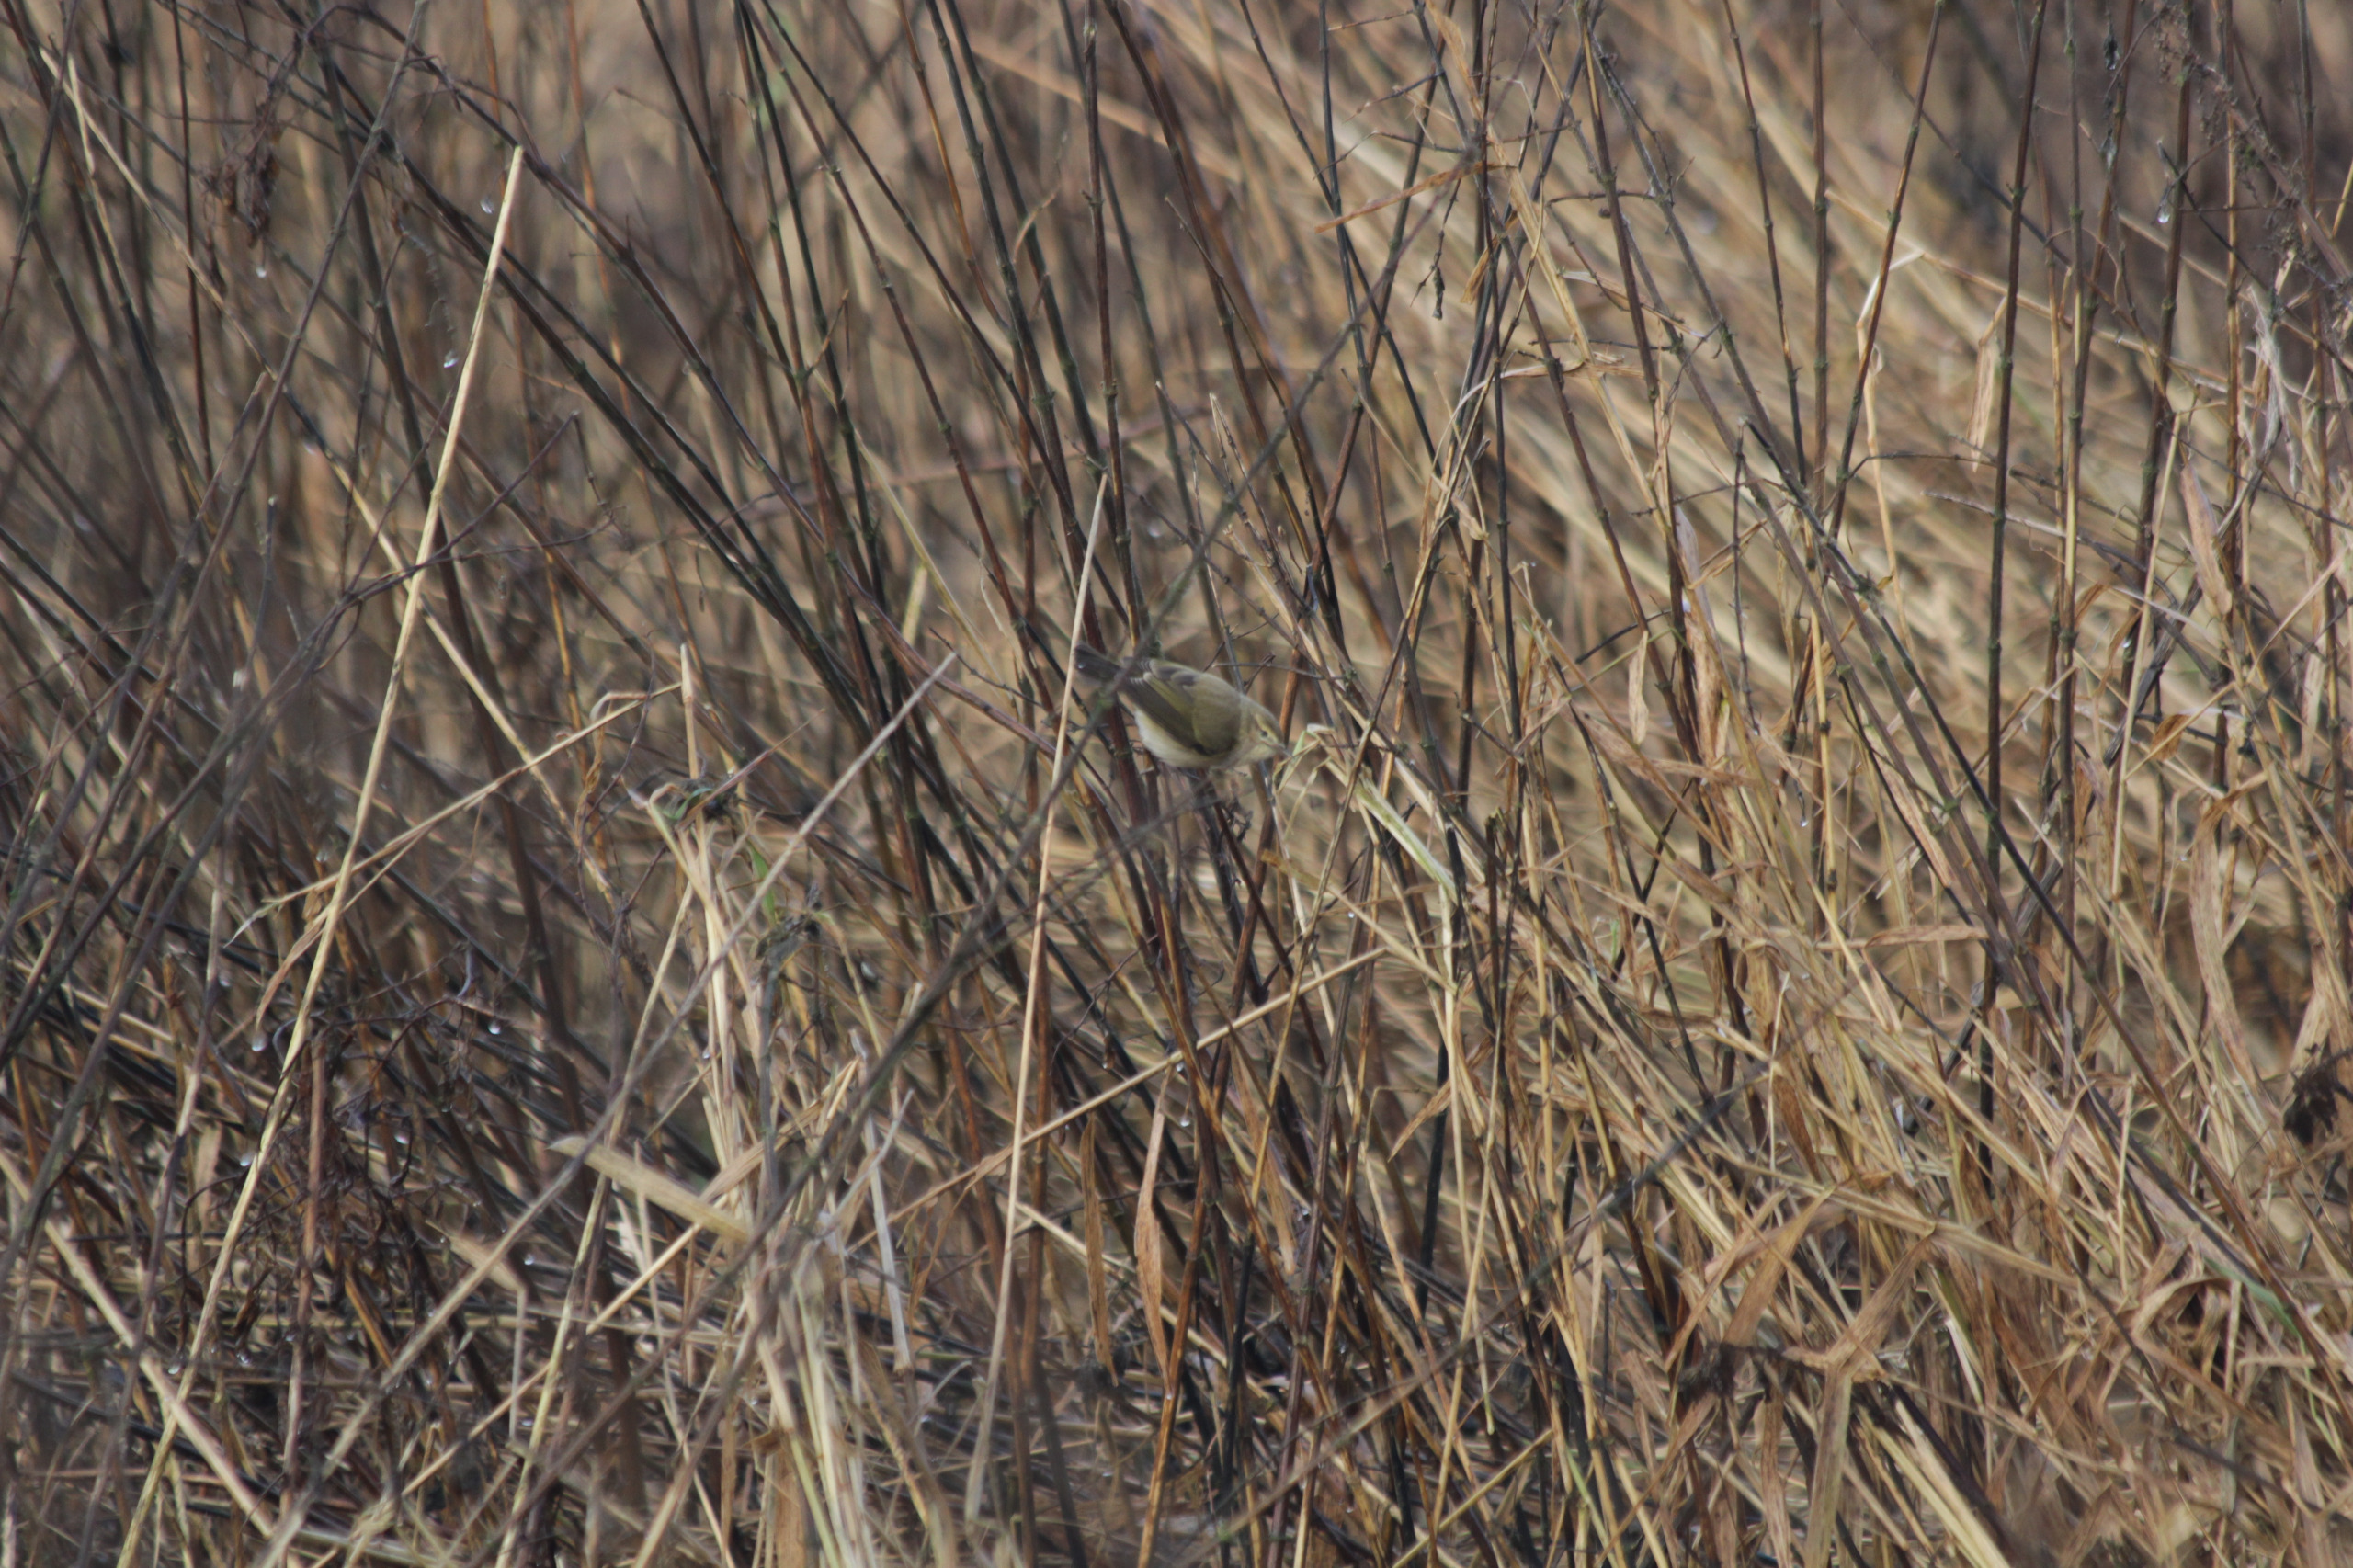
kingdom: Animalia
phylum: Chordata
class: Aves
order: Passeriformes
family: Phylloscopidae
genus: Phylloscopus
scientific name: Phylloscopus collybita
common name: Gransanger
